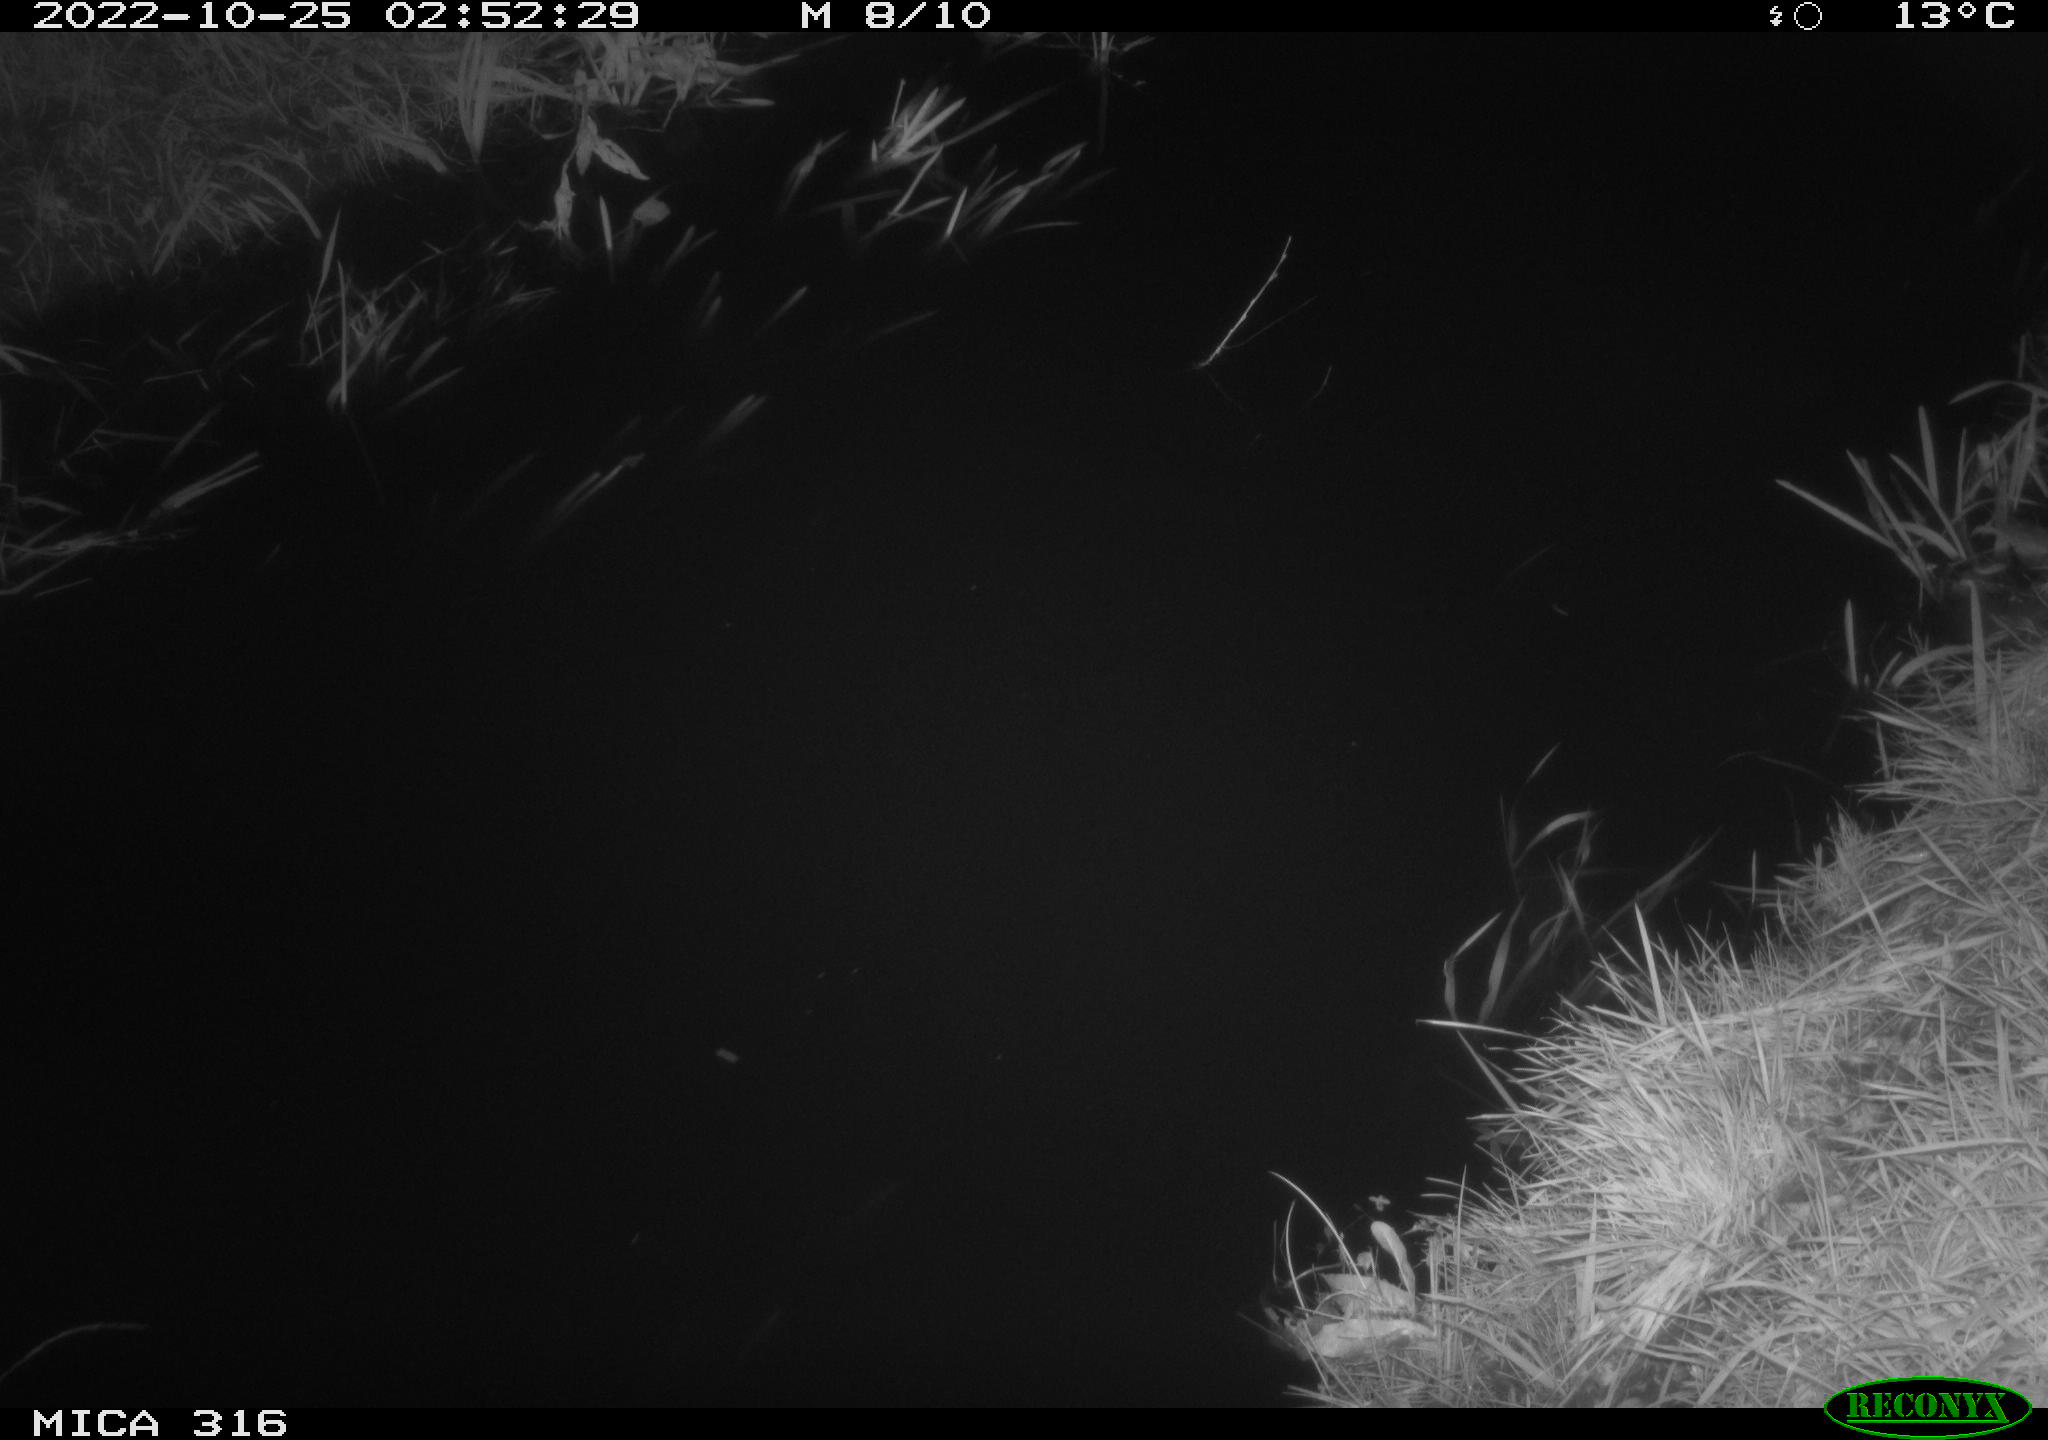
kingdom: Animalia
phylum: Chordata
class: Mammalia
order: Rodentia
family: Muridae
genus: Rattus
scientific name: Rattus norvegicus
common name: Brown rat
